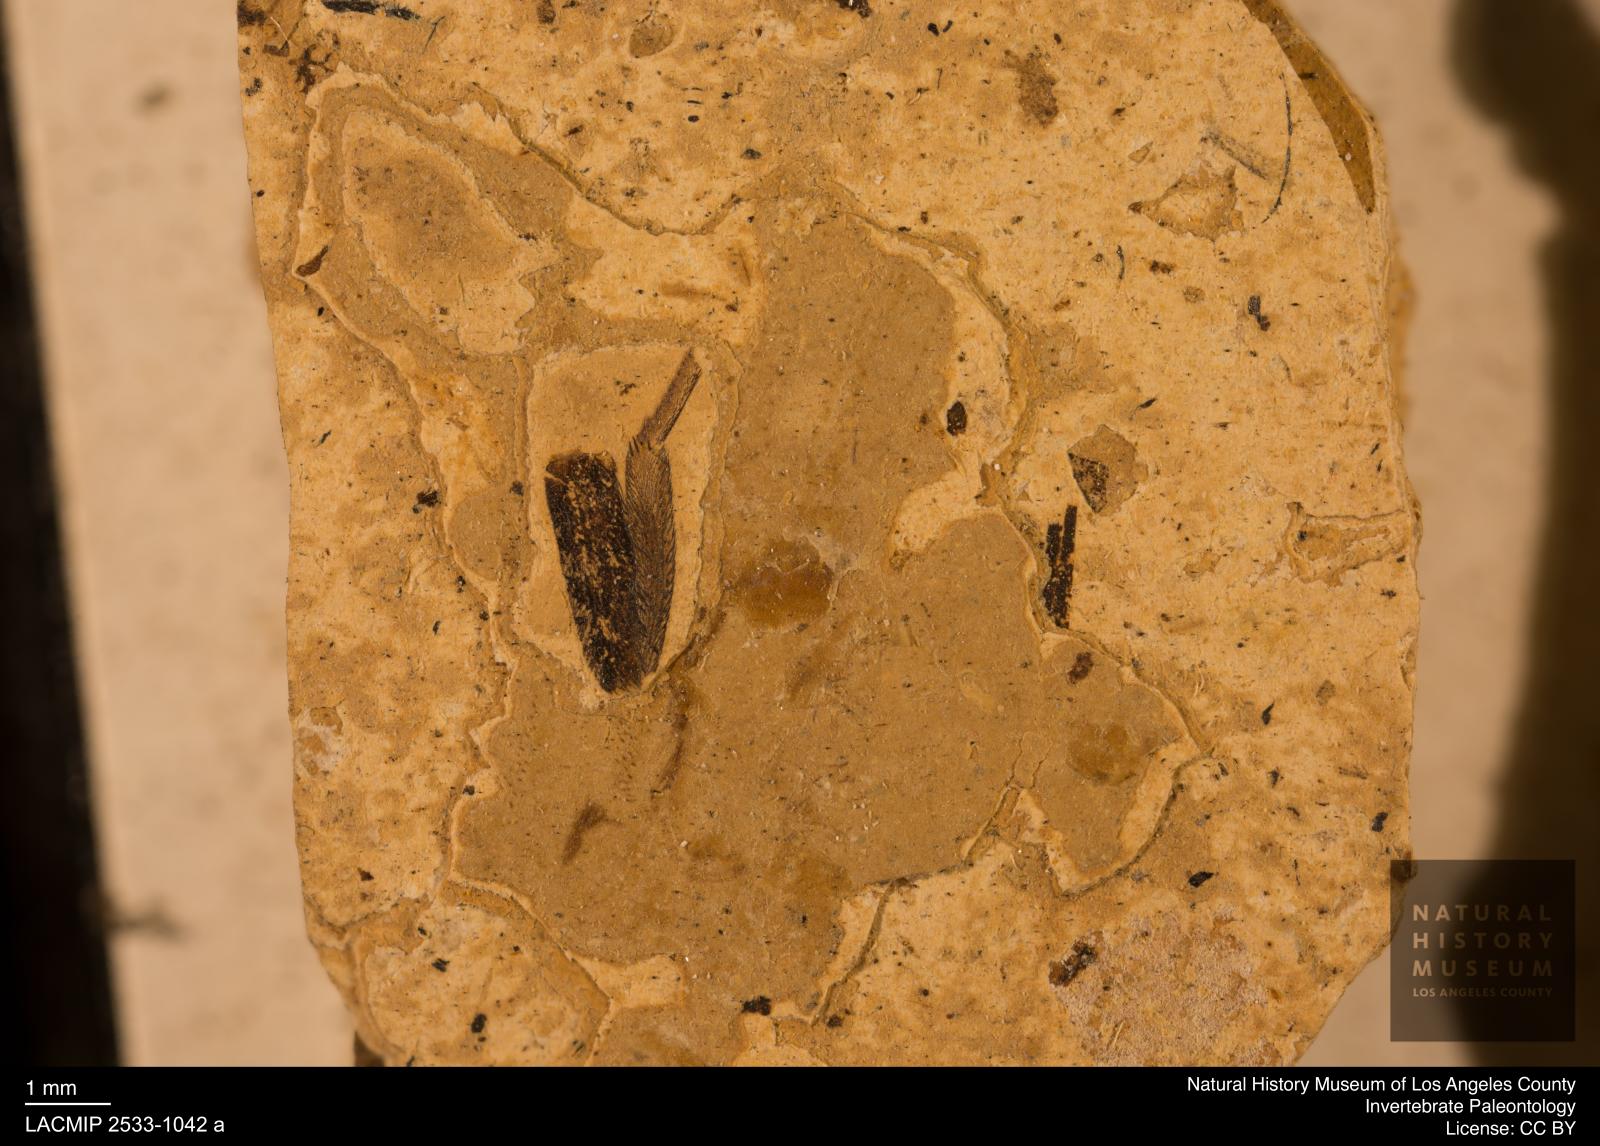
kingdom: Animalia
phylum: Arthropoda
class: Arachnida
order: Araneae
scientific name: Araneae
